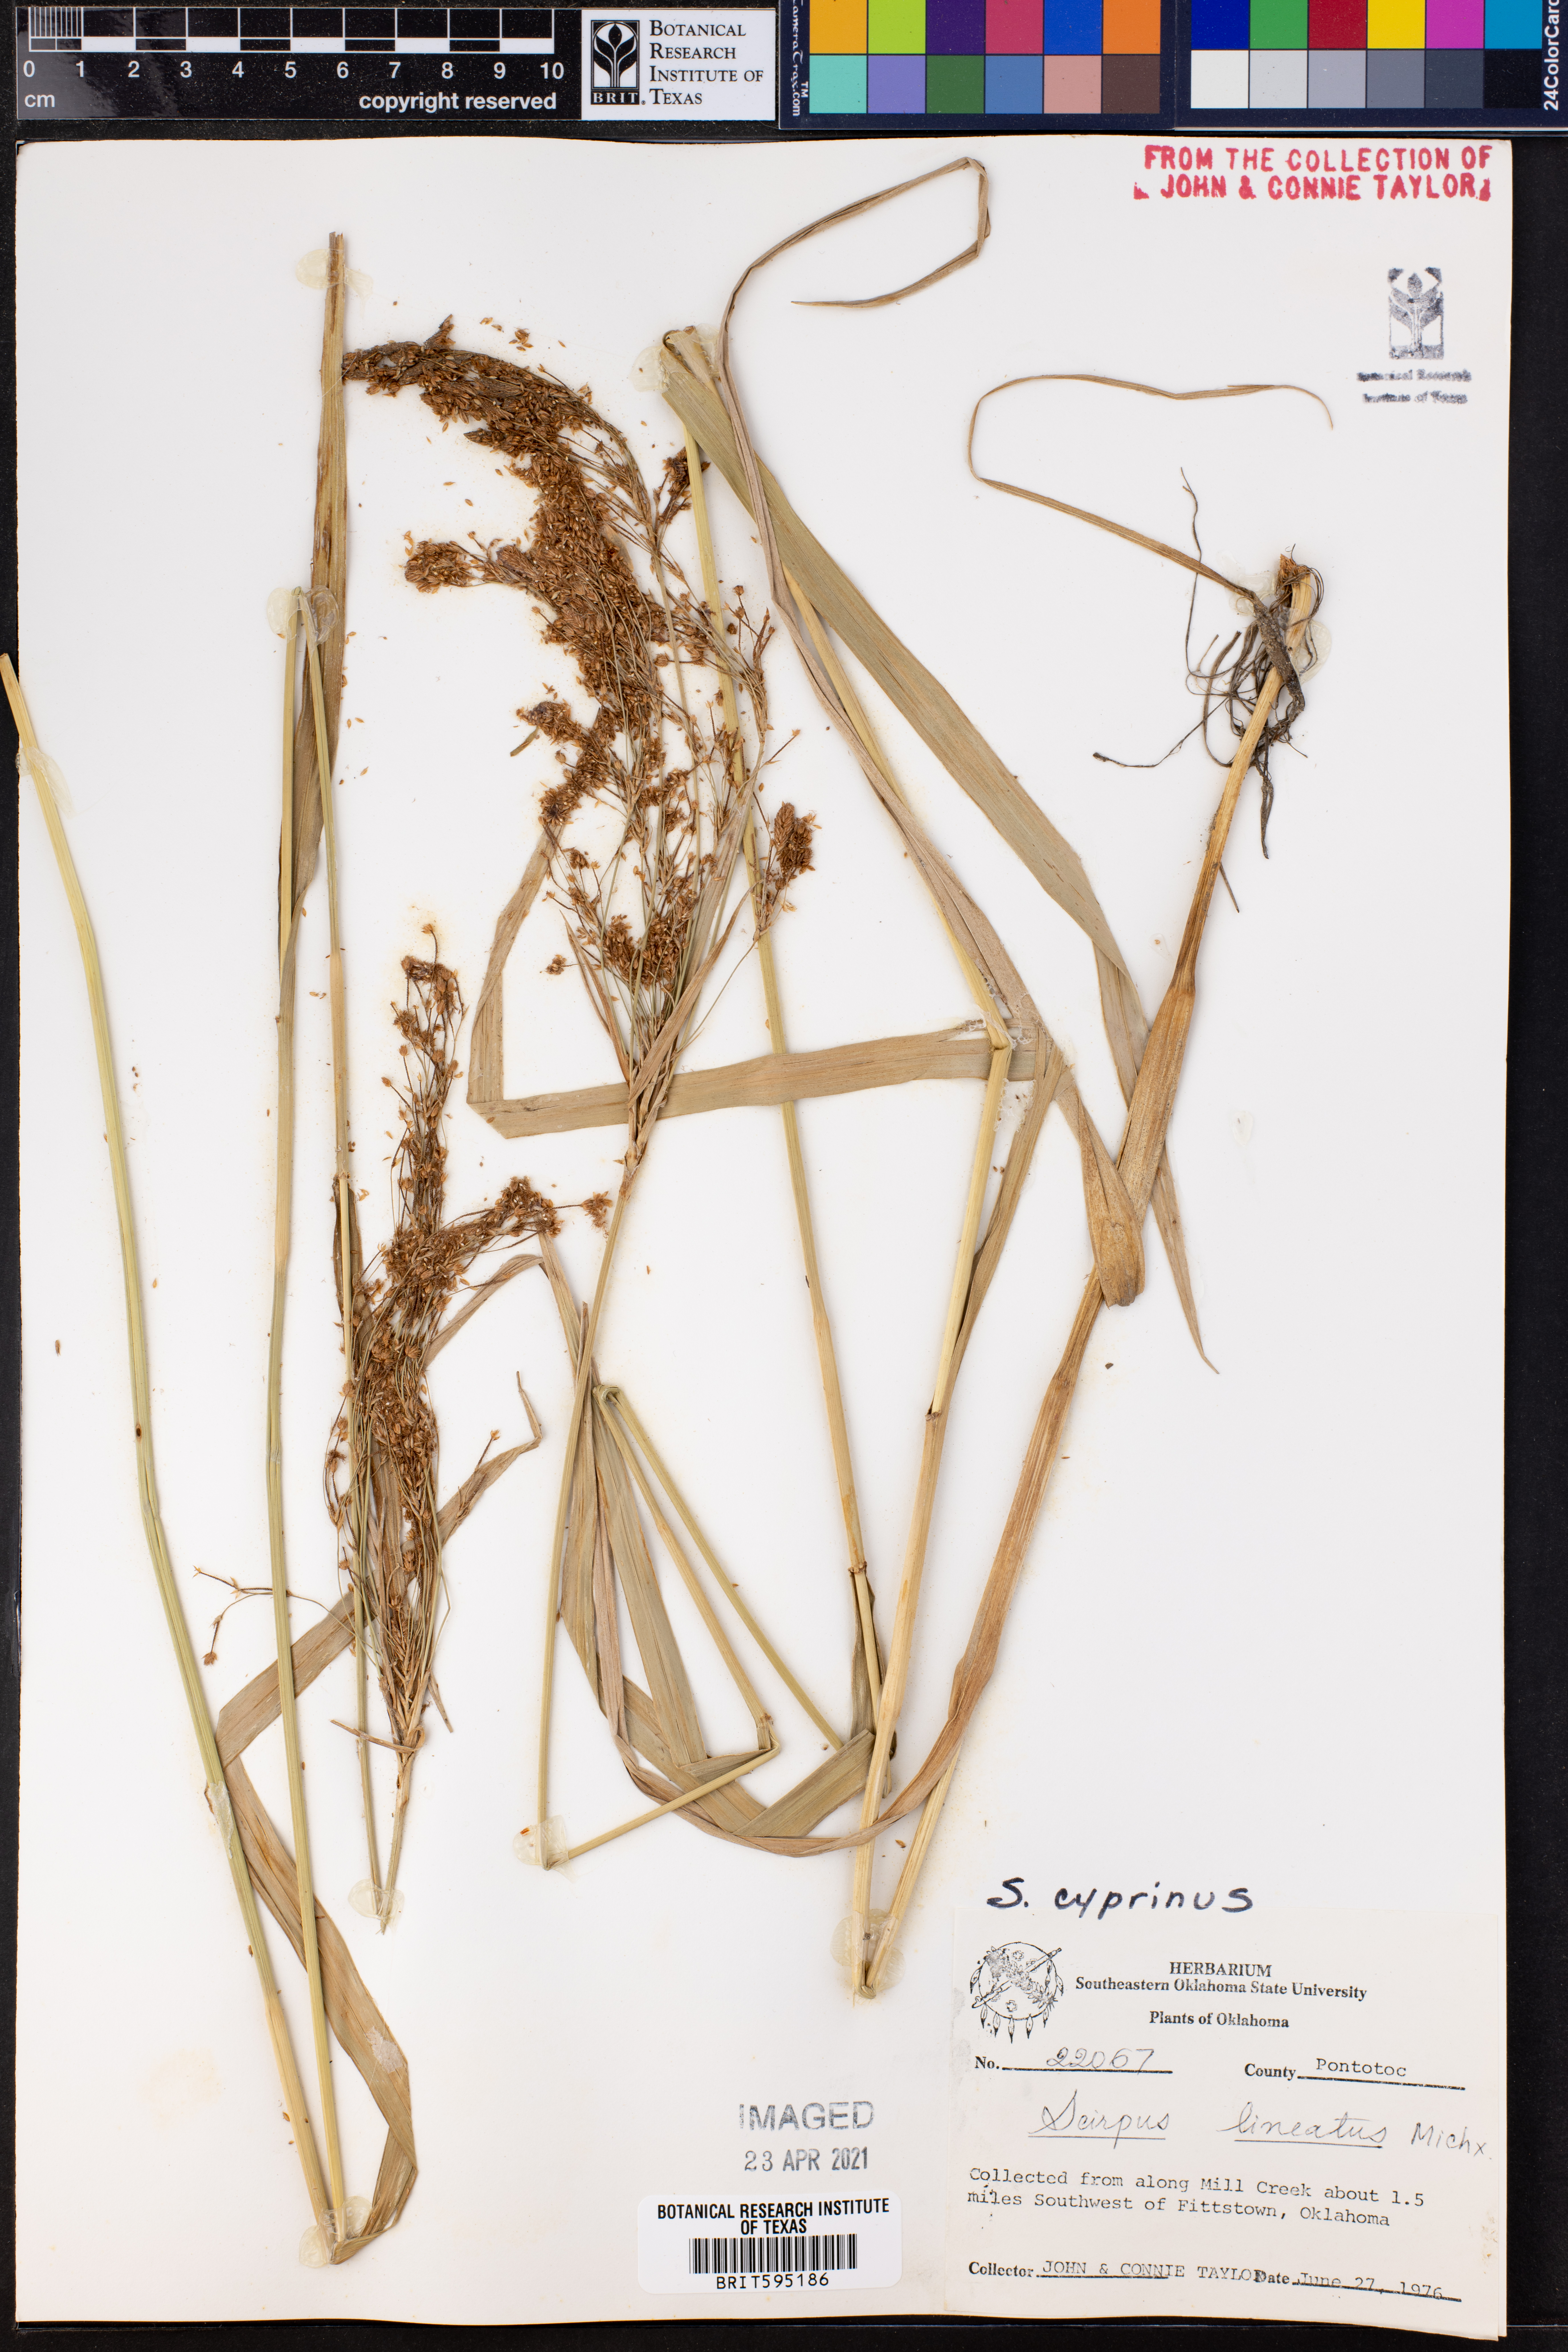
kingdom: Plantae
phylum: Tracheophyta
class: Liliopsida
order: Poales
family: Cyperaceae
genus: Scirpus
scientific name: Scirpus cyperinus
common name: Black-sheathed bulrush
